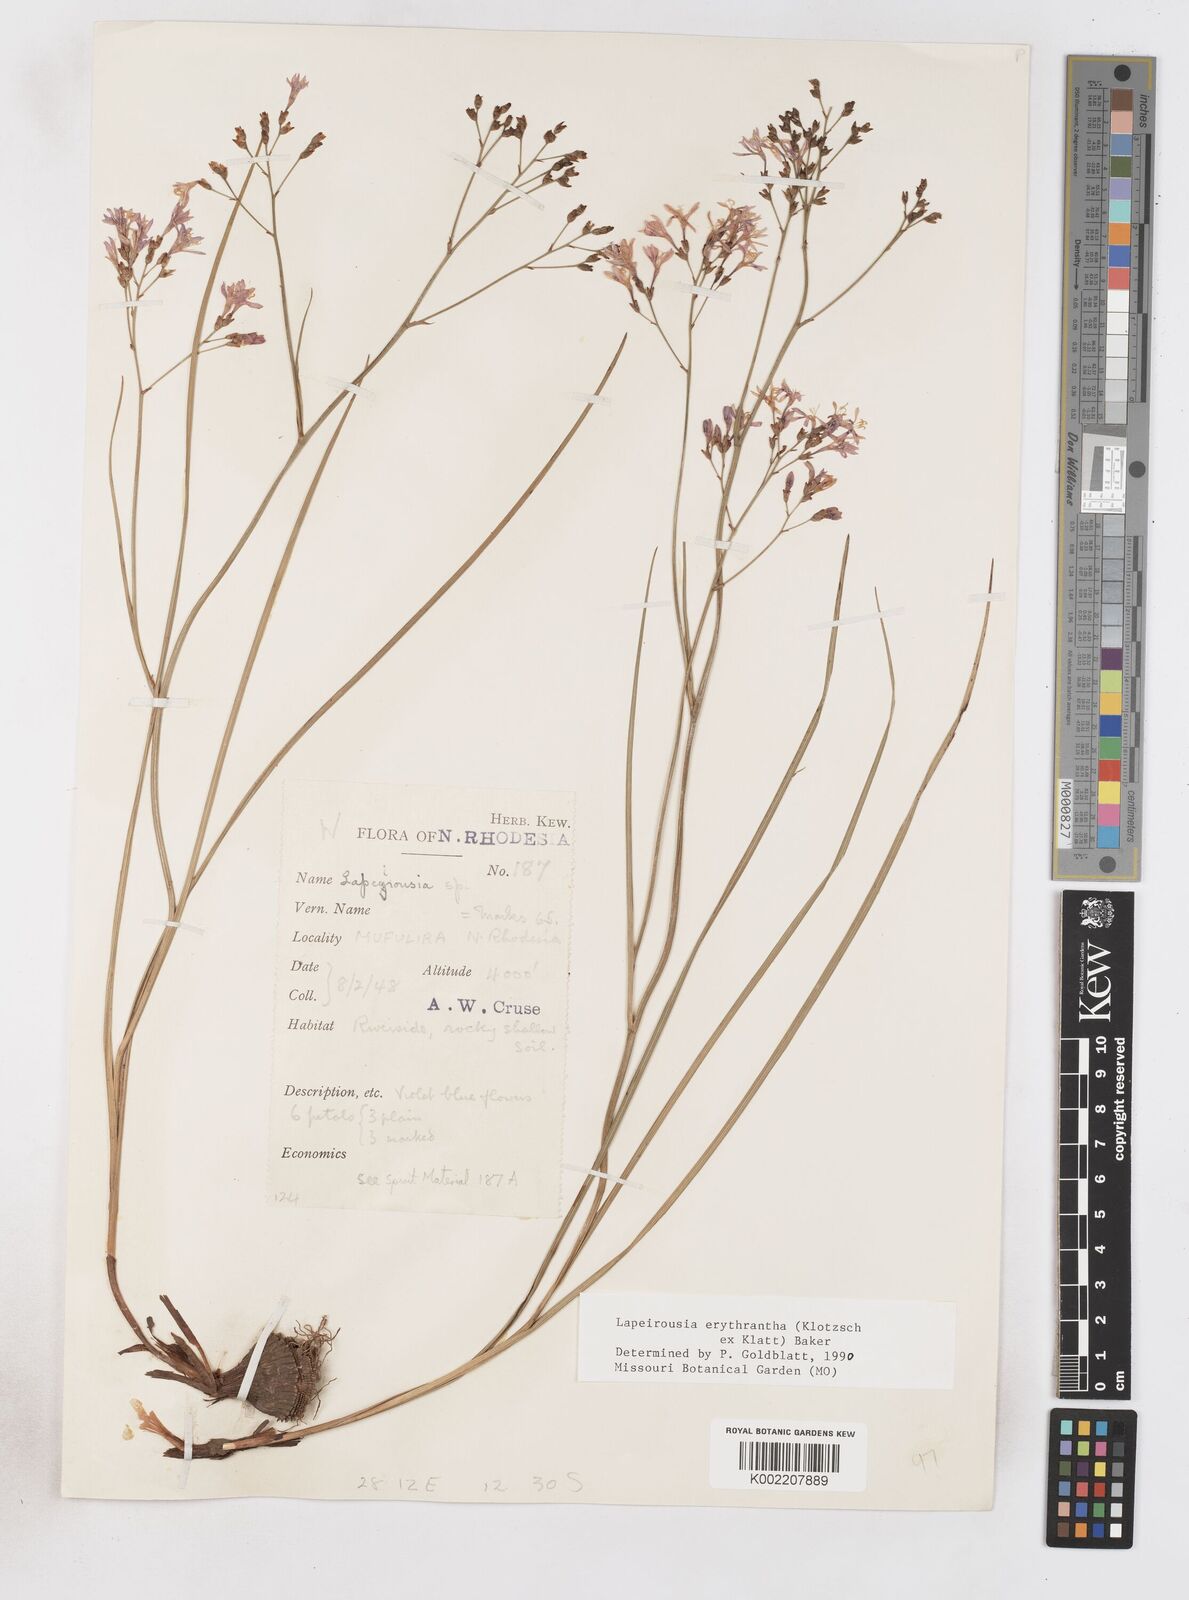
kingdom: Plantae
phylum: Tracheophyta
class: Liliopsida
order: Asparagales
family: Iridaceae
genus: Afrosolen
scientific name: Afrosolen erythranthus
